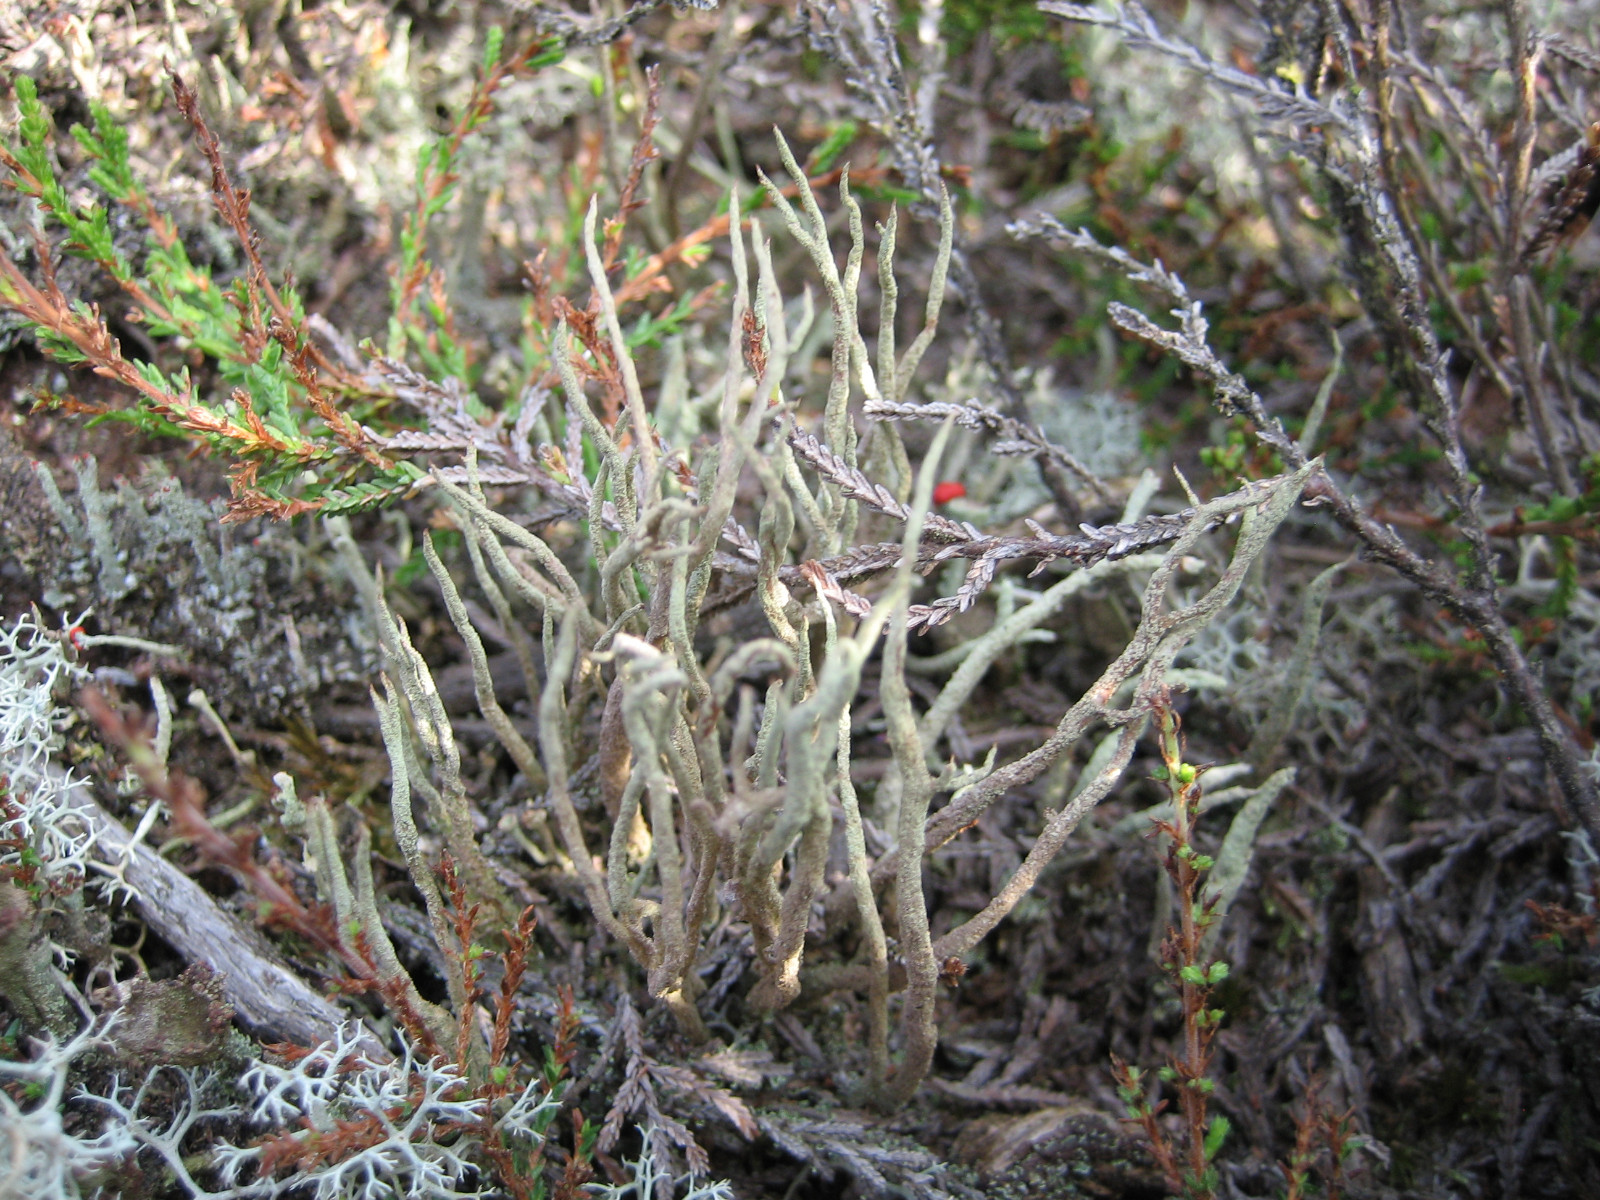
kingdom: Fungi
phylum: Ascomycota
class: Lecanoromycetes
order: Lecanorales
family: Cladoniaceae
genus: Cladonia
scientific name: Cladonia subulata
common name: spids bægerlav
